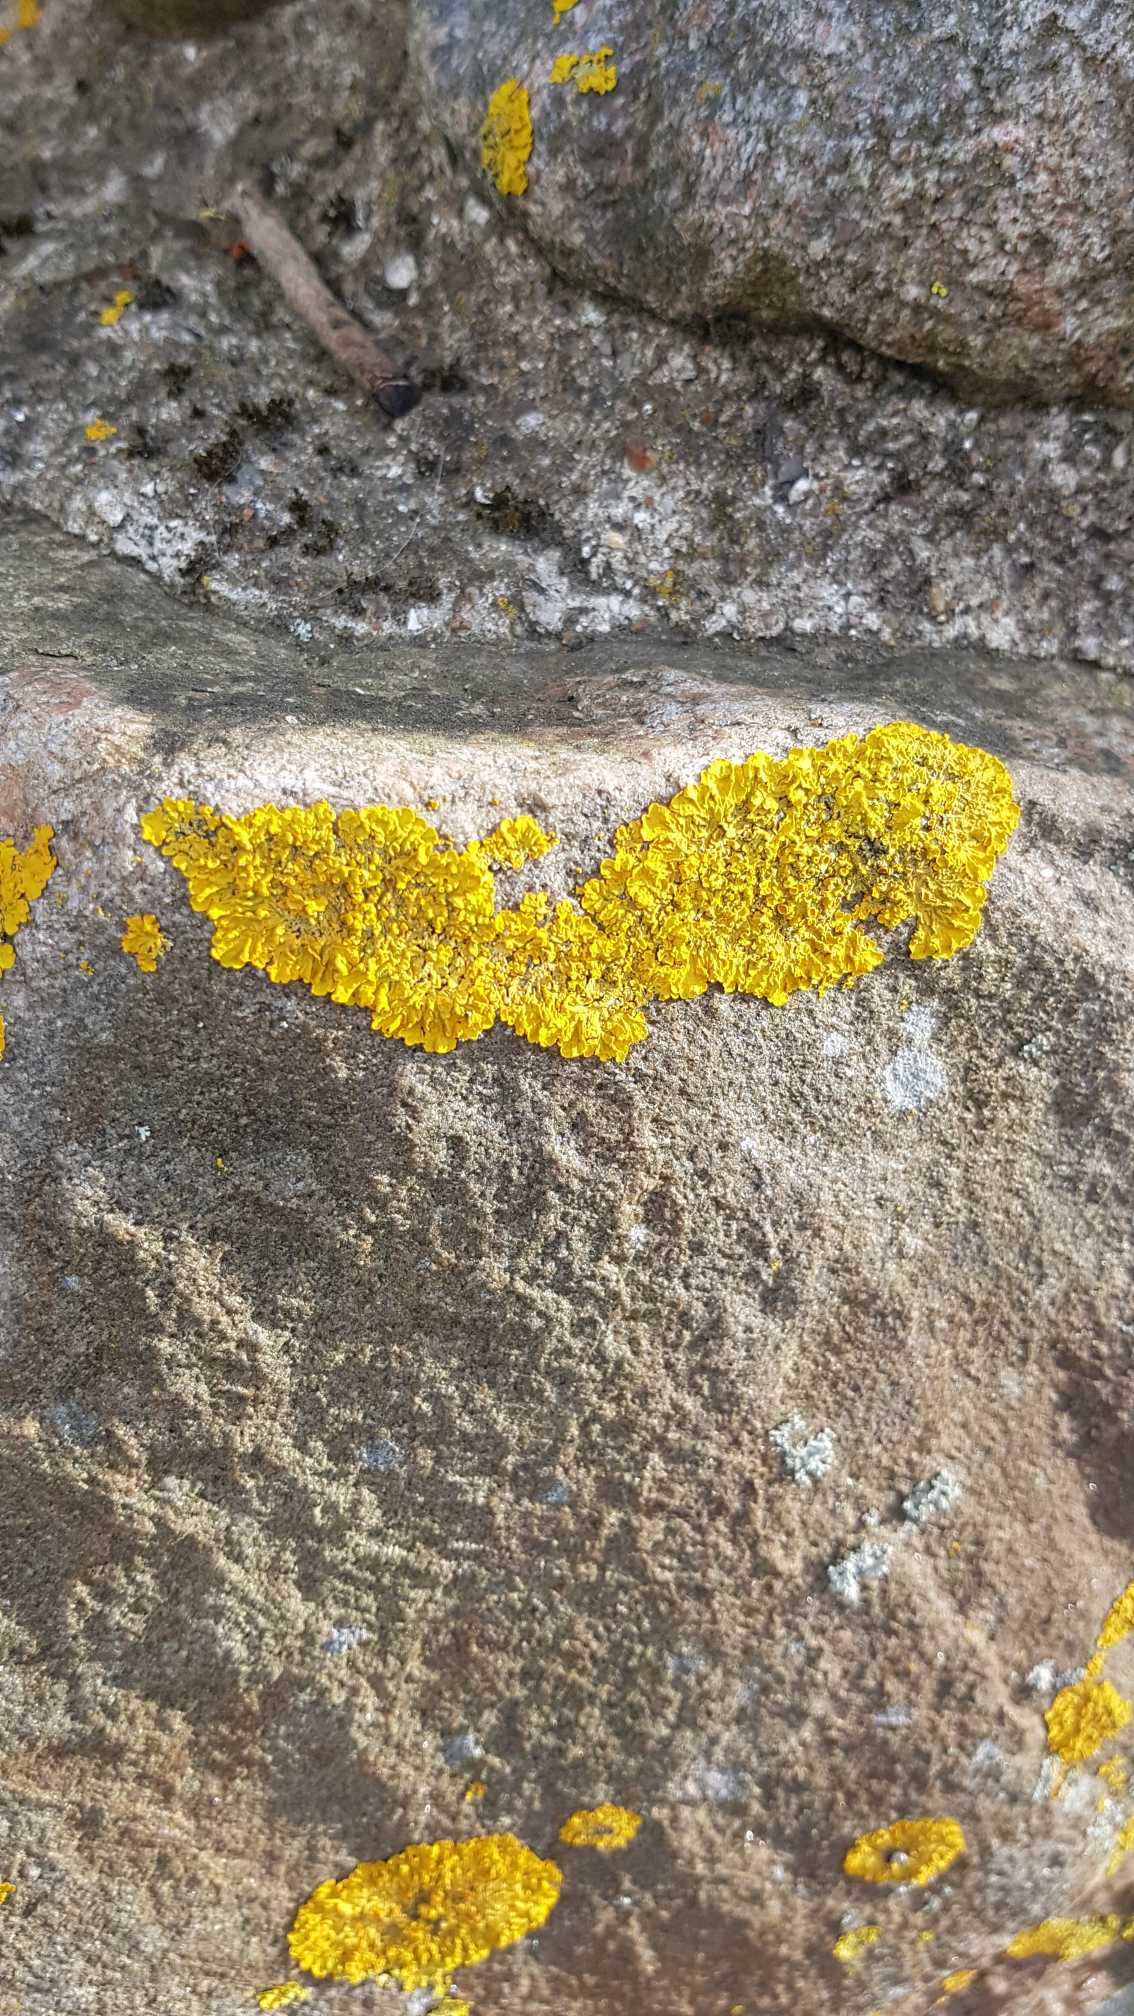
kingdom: Fungi
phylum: Ascomycota
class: Lecanoromycetes
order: Teloschistales
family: Teloschistaceae
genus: Xanthoria
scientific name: Xanthoria parietina
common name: Almindelig væggelav
